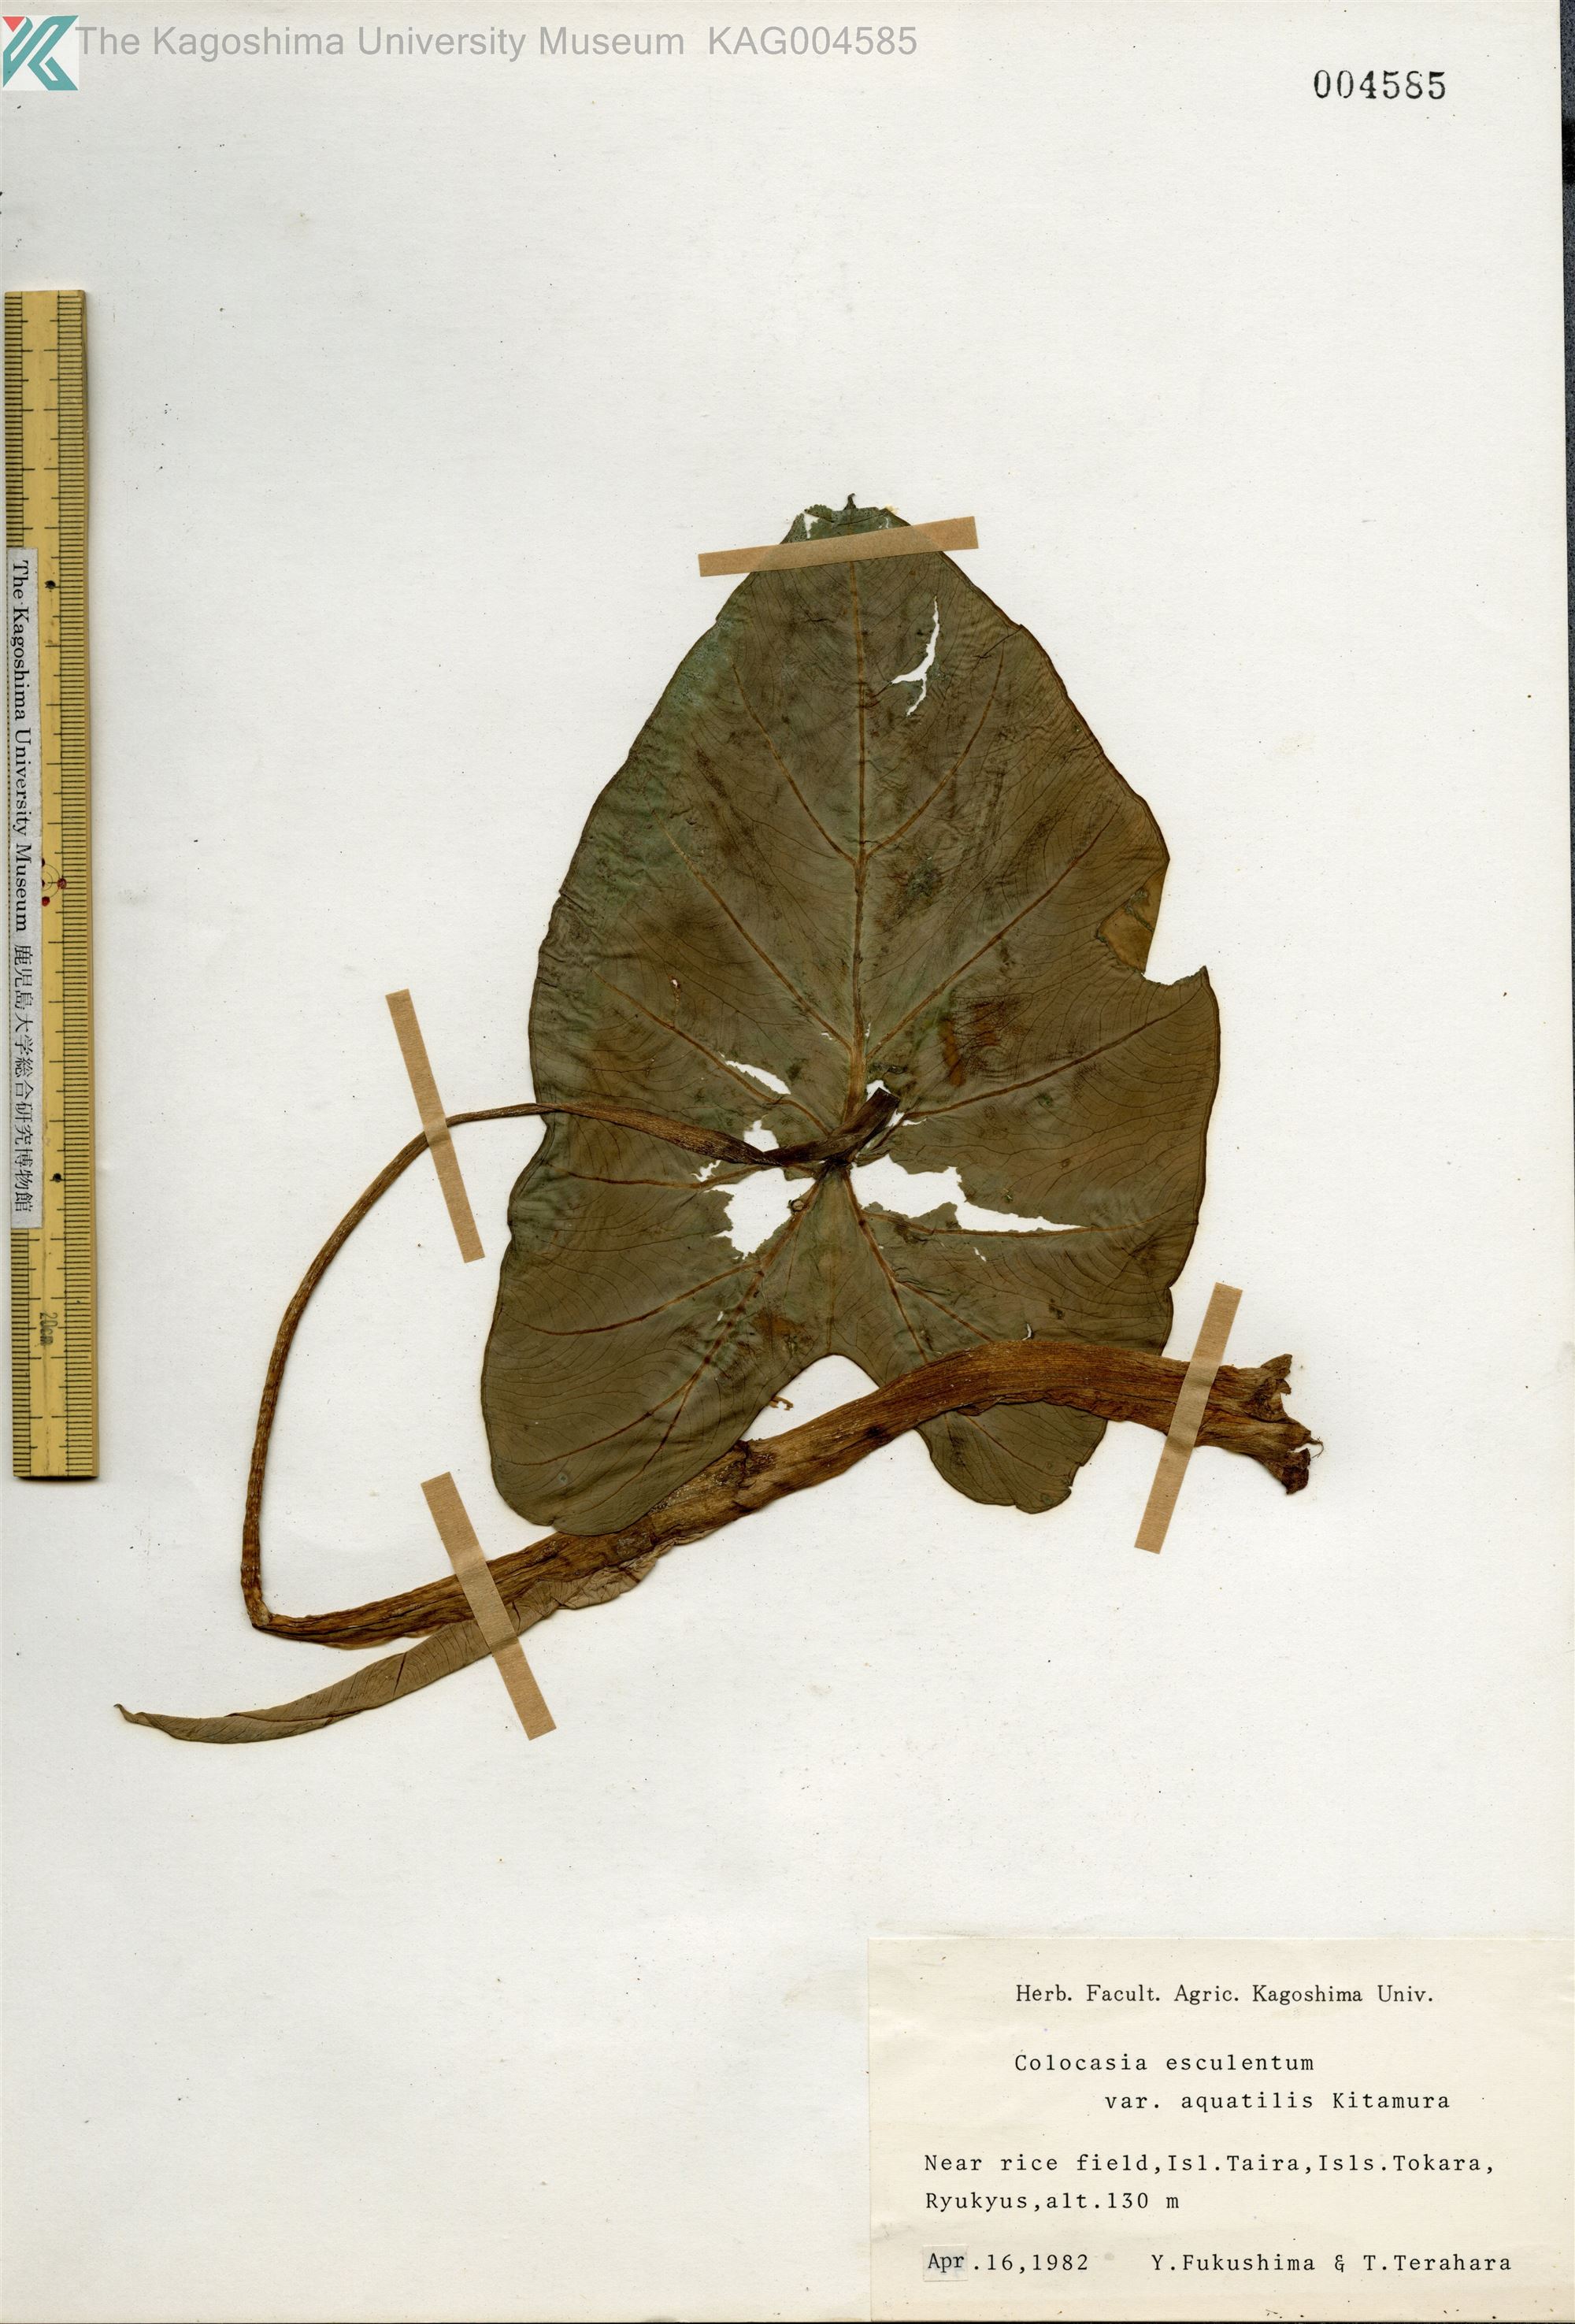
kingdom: Plantae
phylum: Tracheophyta
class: Liliopsida
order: Alismatales
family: Araceae
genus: Colocasia
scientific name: Colocasia esculenta
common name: Taro
